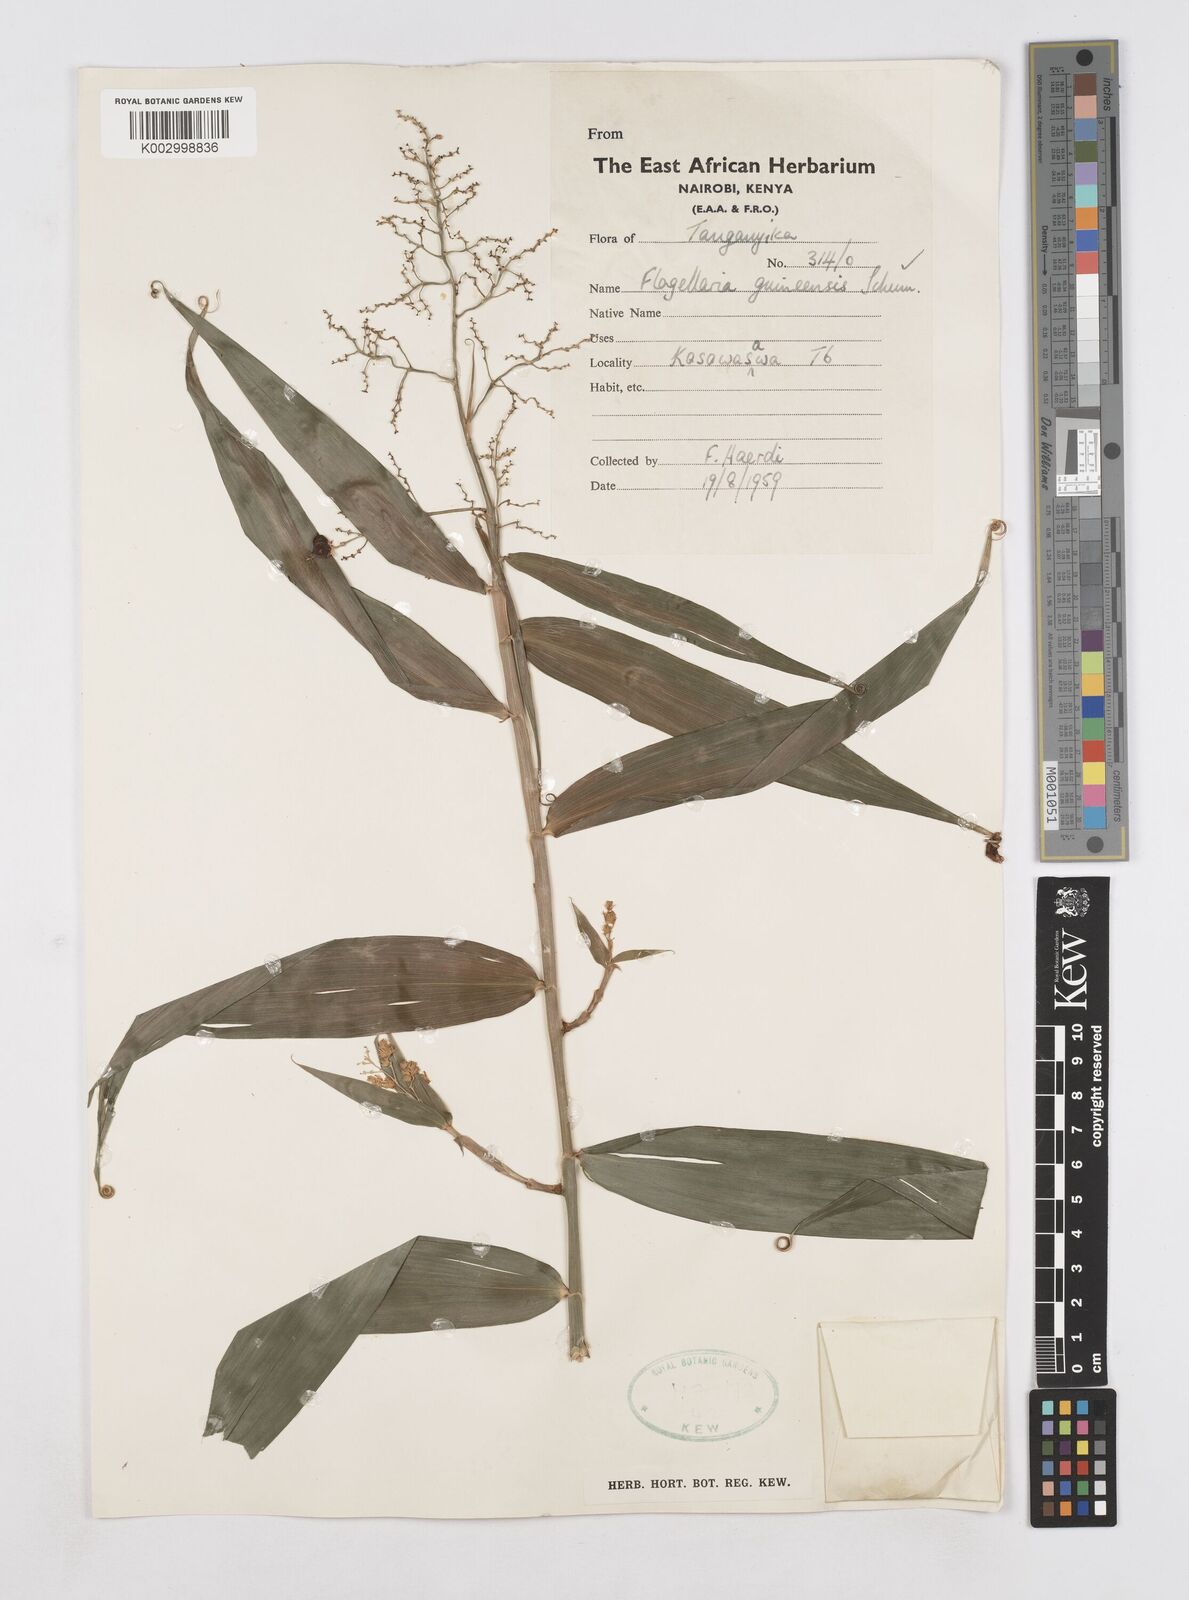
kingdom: Plantae
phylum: Tracheophyta
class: Liliopsida
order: Poales
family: Flagellariaceae
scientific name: Flagellariaceae
